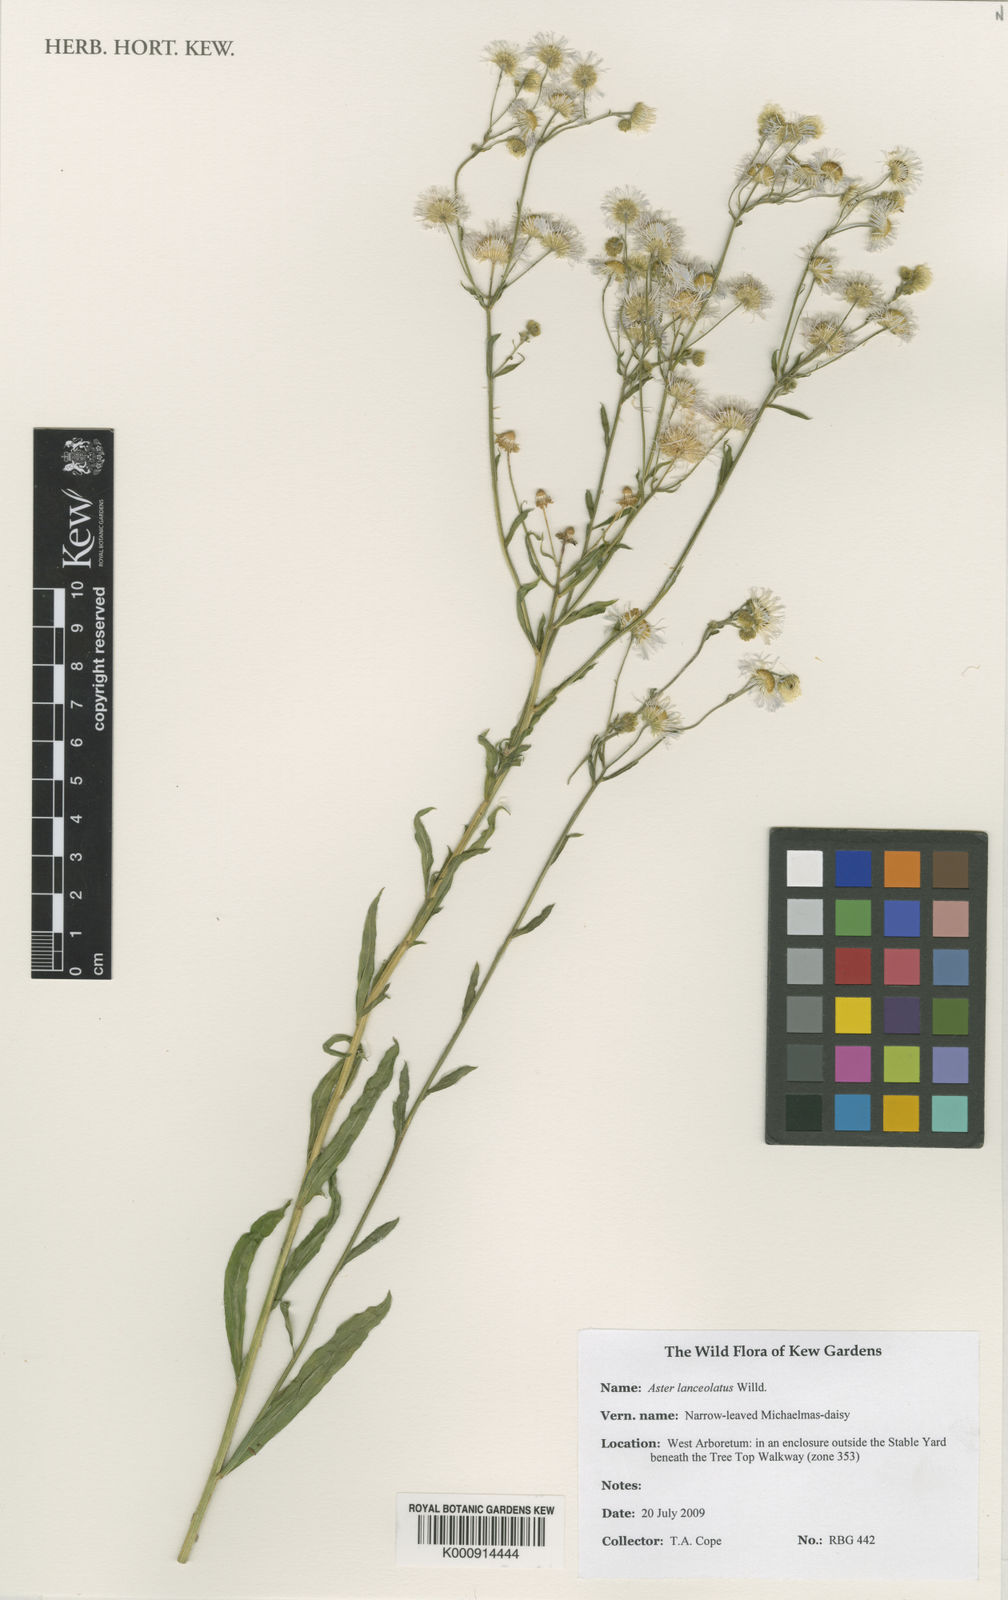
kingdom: Plantae
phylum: Tracheophyta
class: Magnoliopsida
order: Asterales
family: Asteraceae
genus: Symphyotrichum
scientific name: Symphyotrichum lanceolatum
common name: Panicled aster
